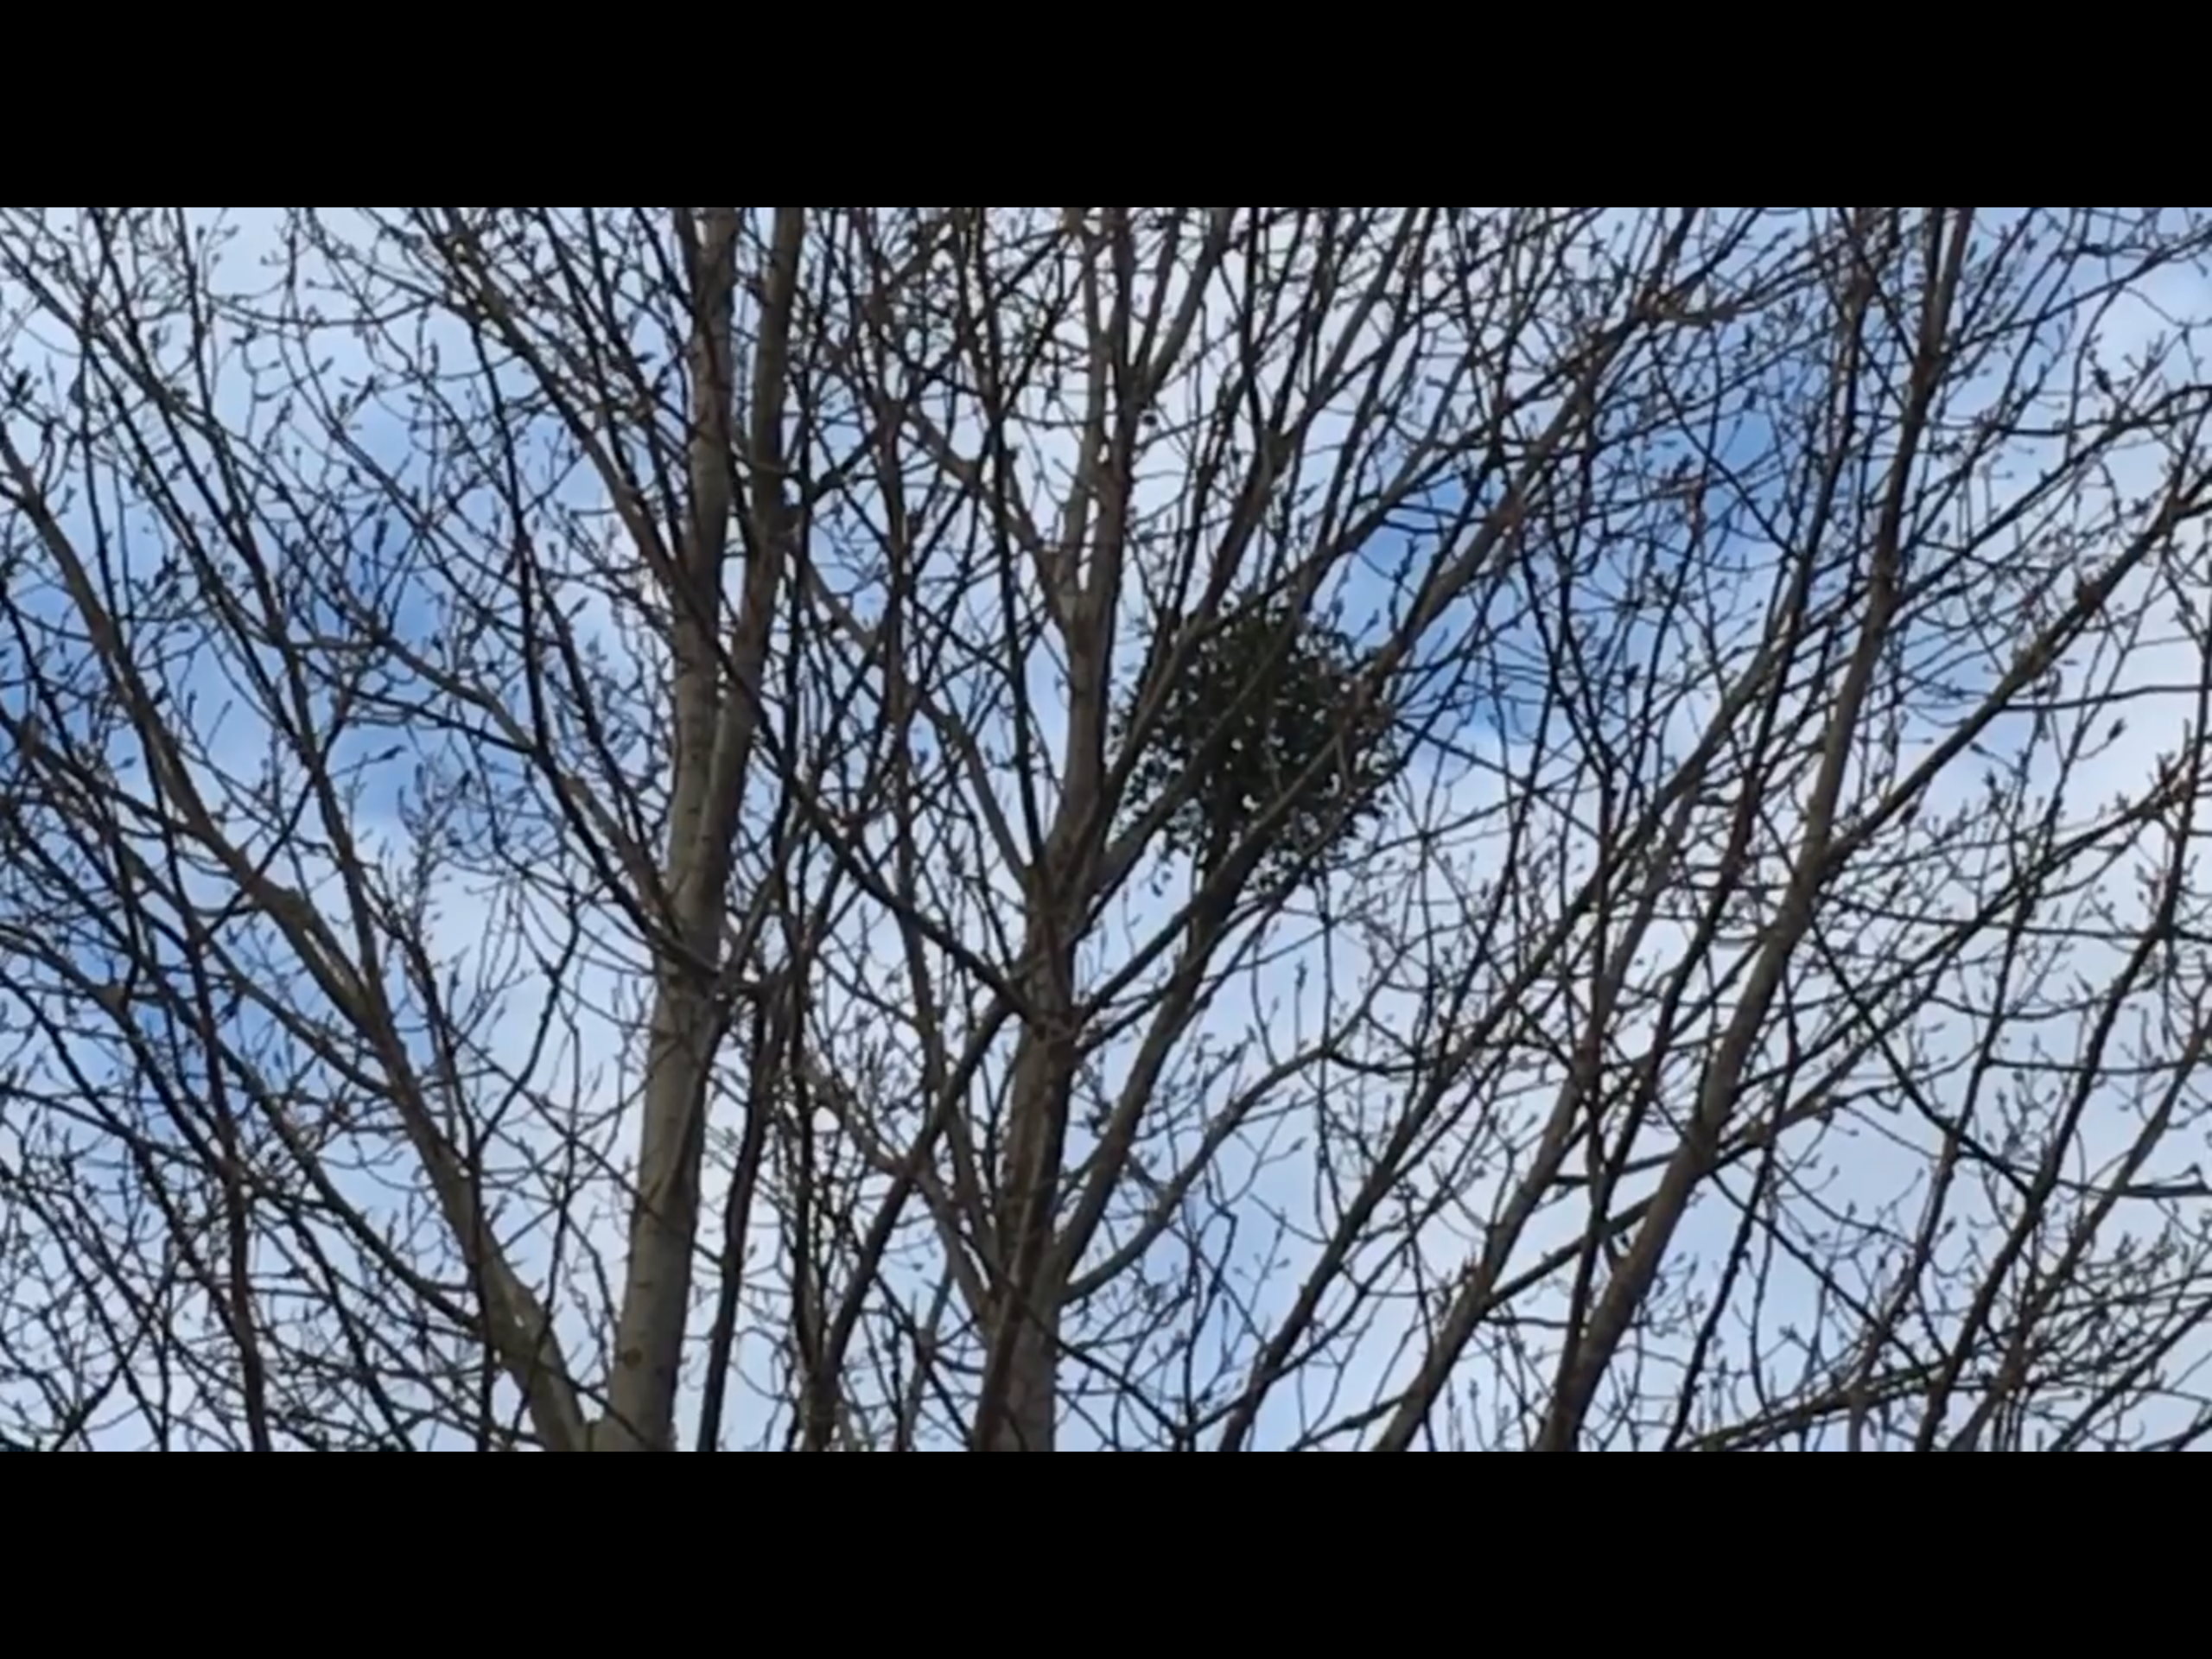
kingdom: Plantae
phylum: Tracheophyta
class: Magnoliopsida
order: Santalales
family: Viscaceae
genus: Viscum
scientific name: Viscum album
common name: Mistelten
